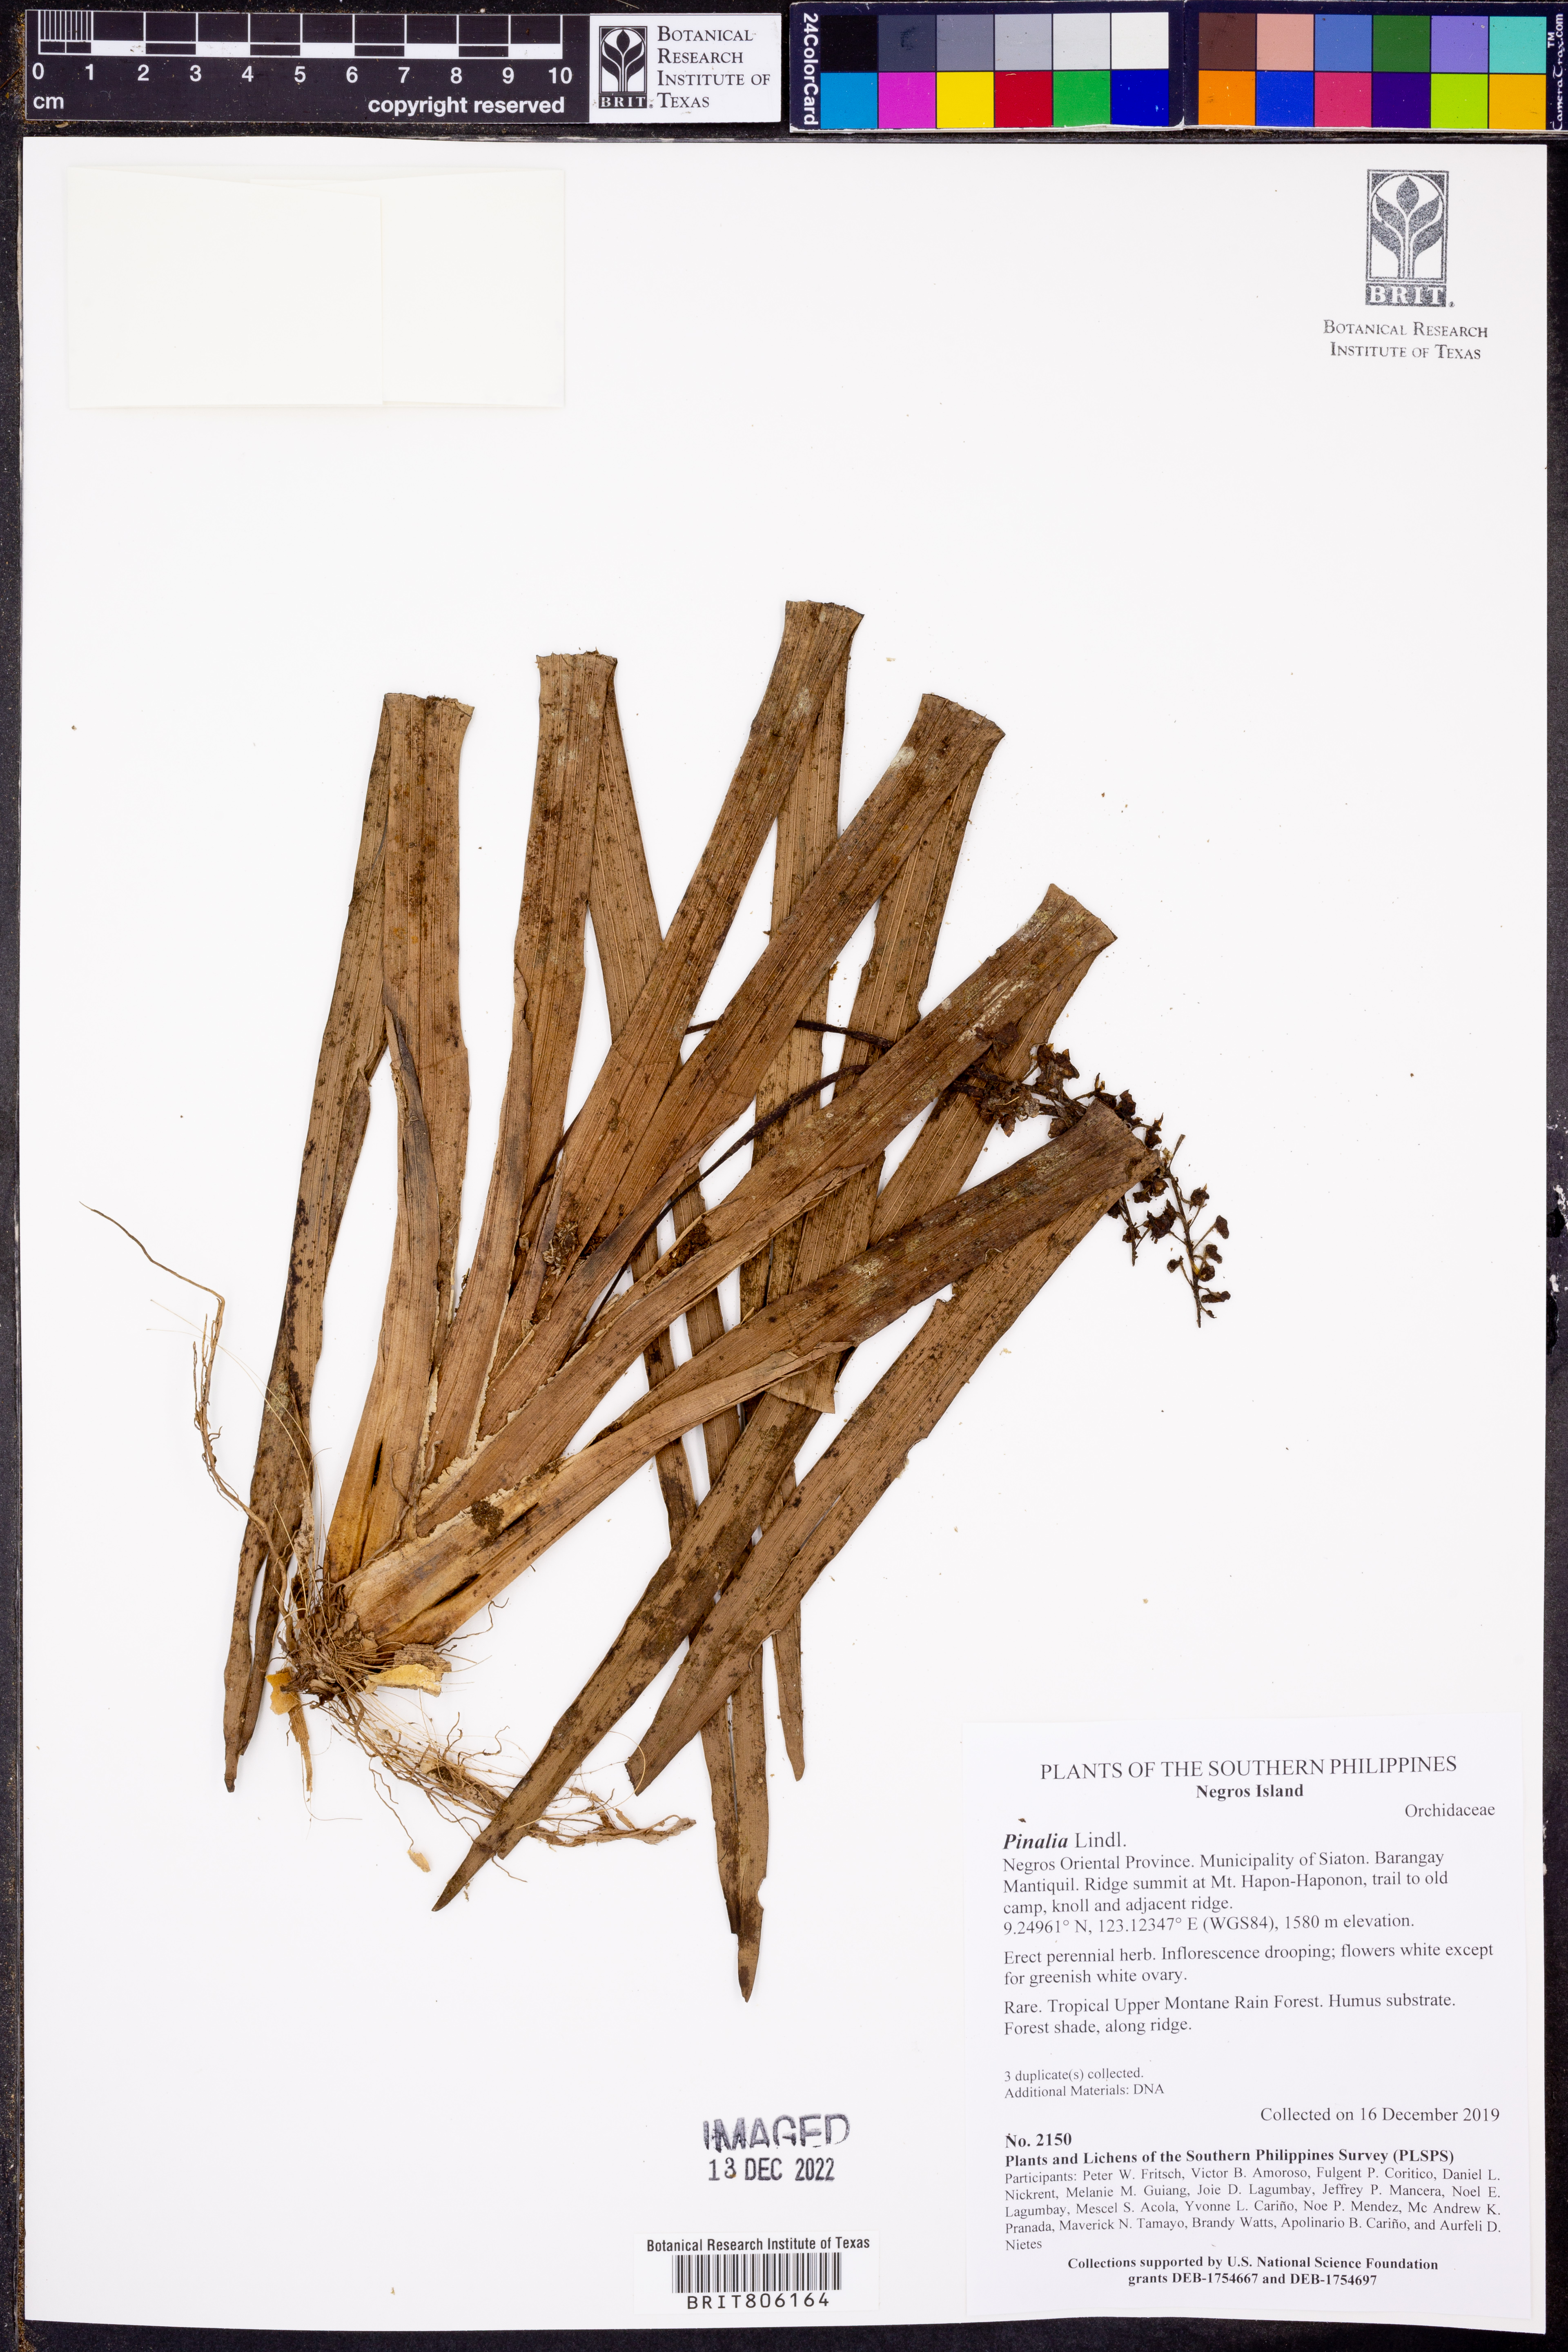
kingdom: Plantae
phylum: Tracheophyta
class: Liliopsida
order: Asparagales
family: Orchidaceae
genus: Pinalia
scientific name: Pinalia
